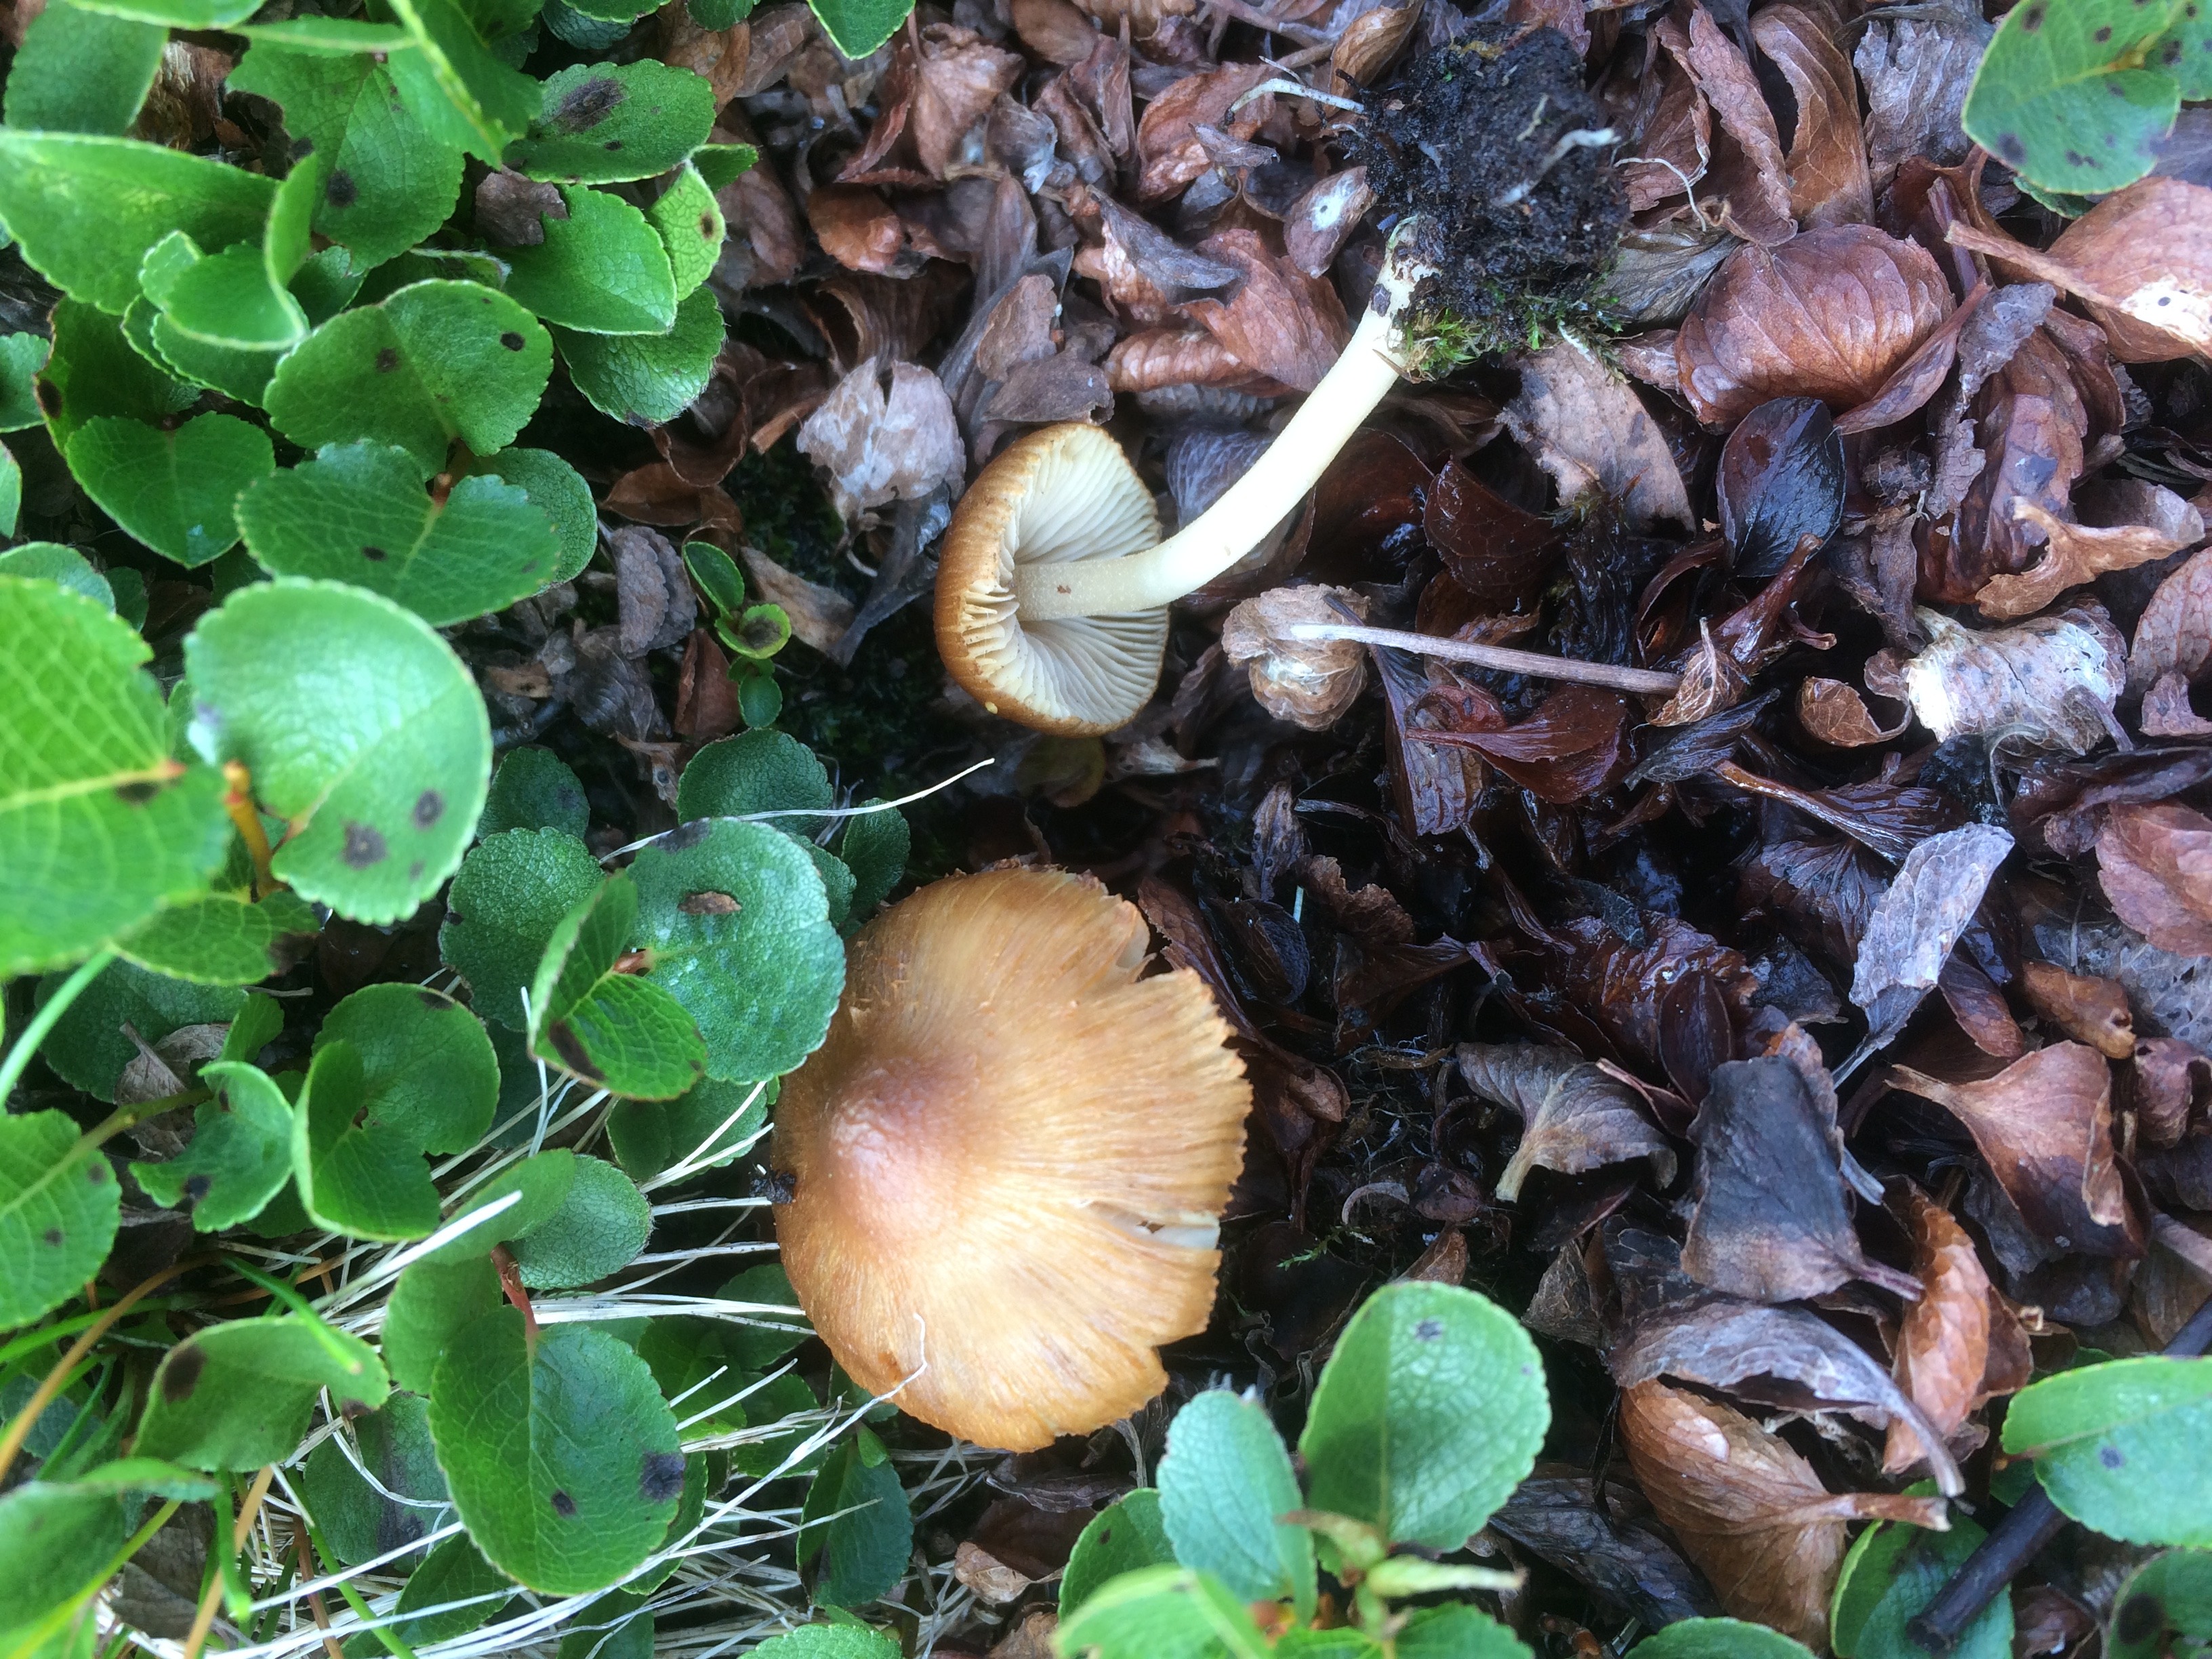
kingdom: Fungi
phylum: Basidiomycota
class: Agaricomycetes
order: Agaricales
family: Inocybaceae
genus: Inocybe
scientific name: Inocybe
